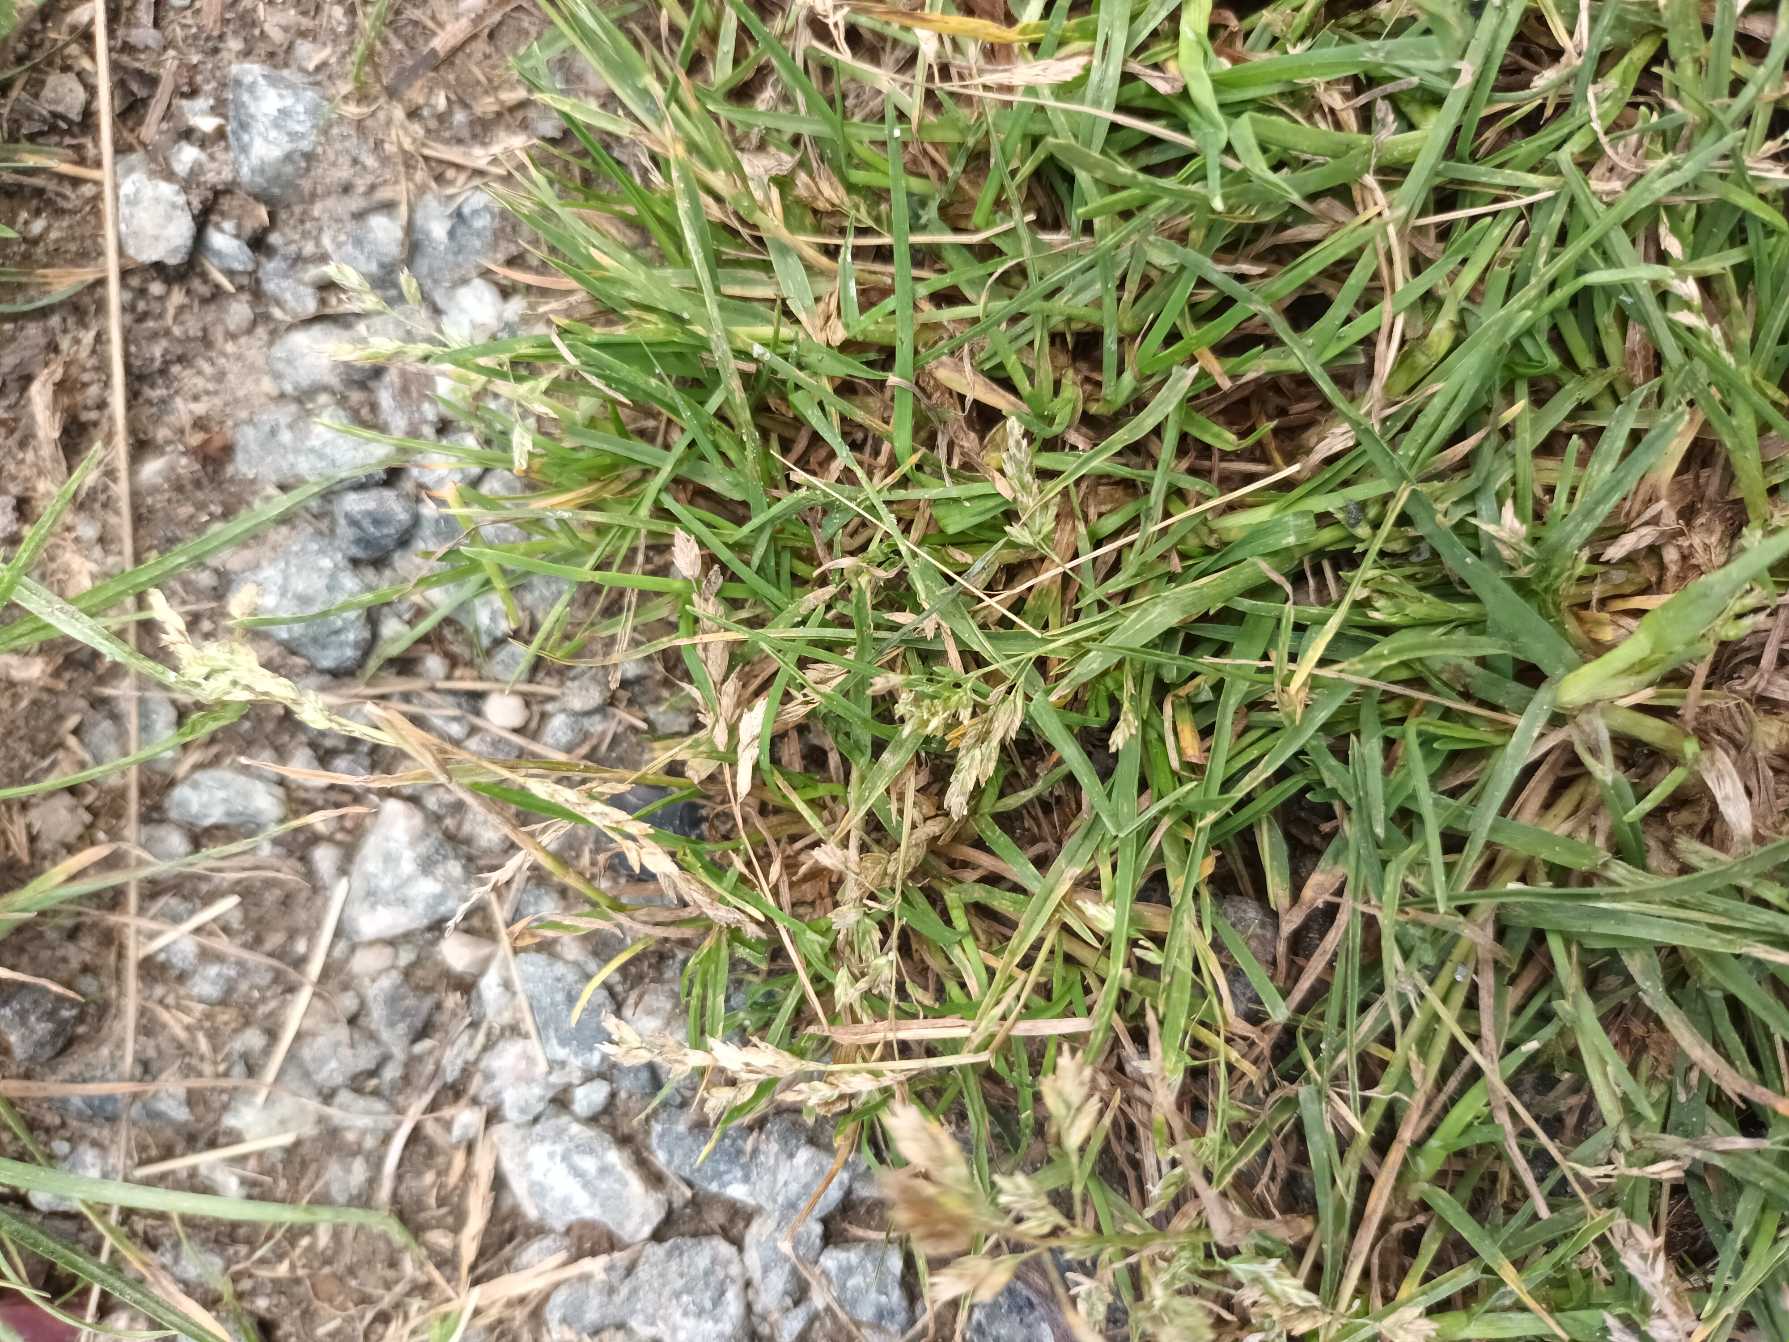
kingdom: Plantae
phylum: Tracheophyta
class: Liliopsida
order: Poales
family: Poaceae
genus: Poa
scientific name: Poa annua
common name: Enårig rapgræs
